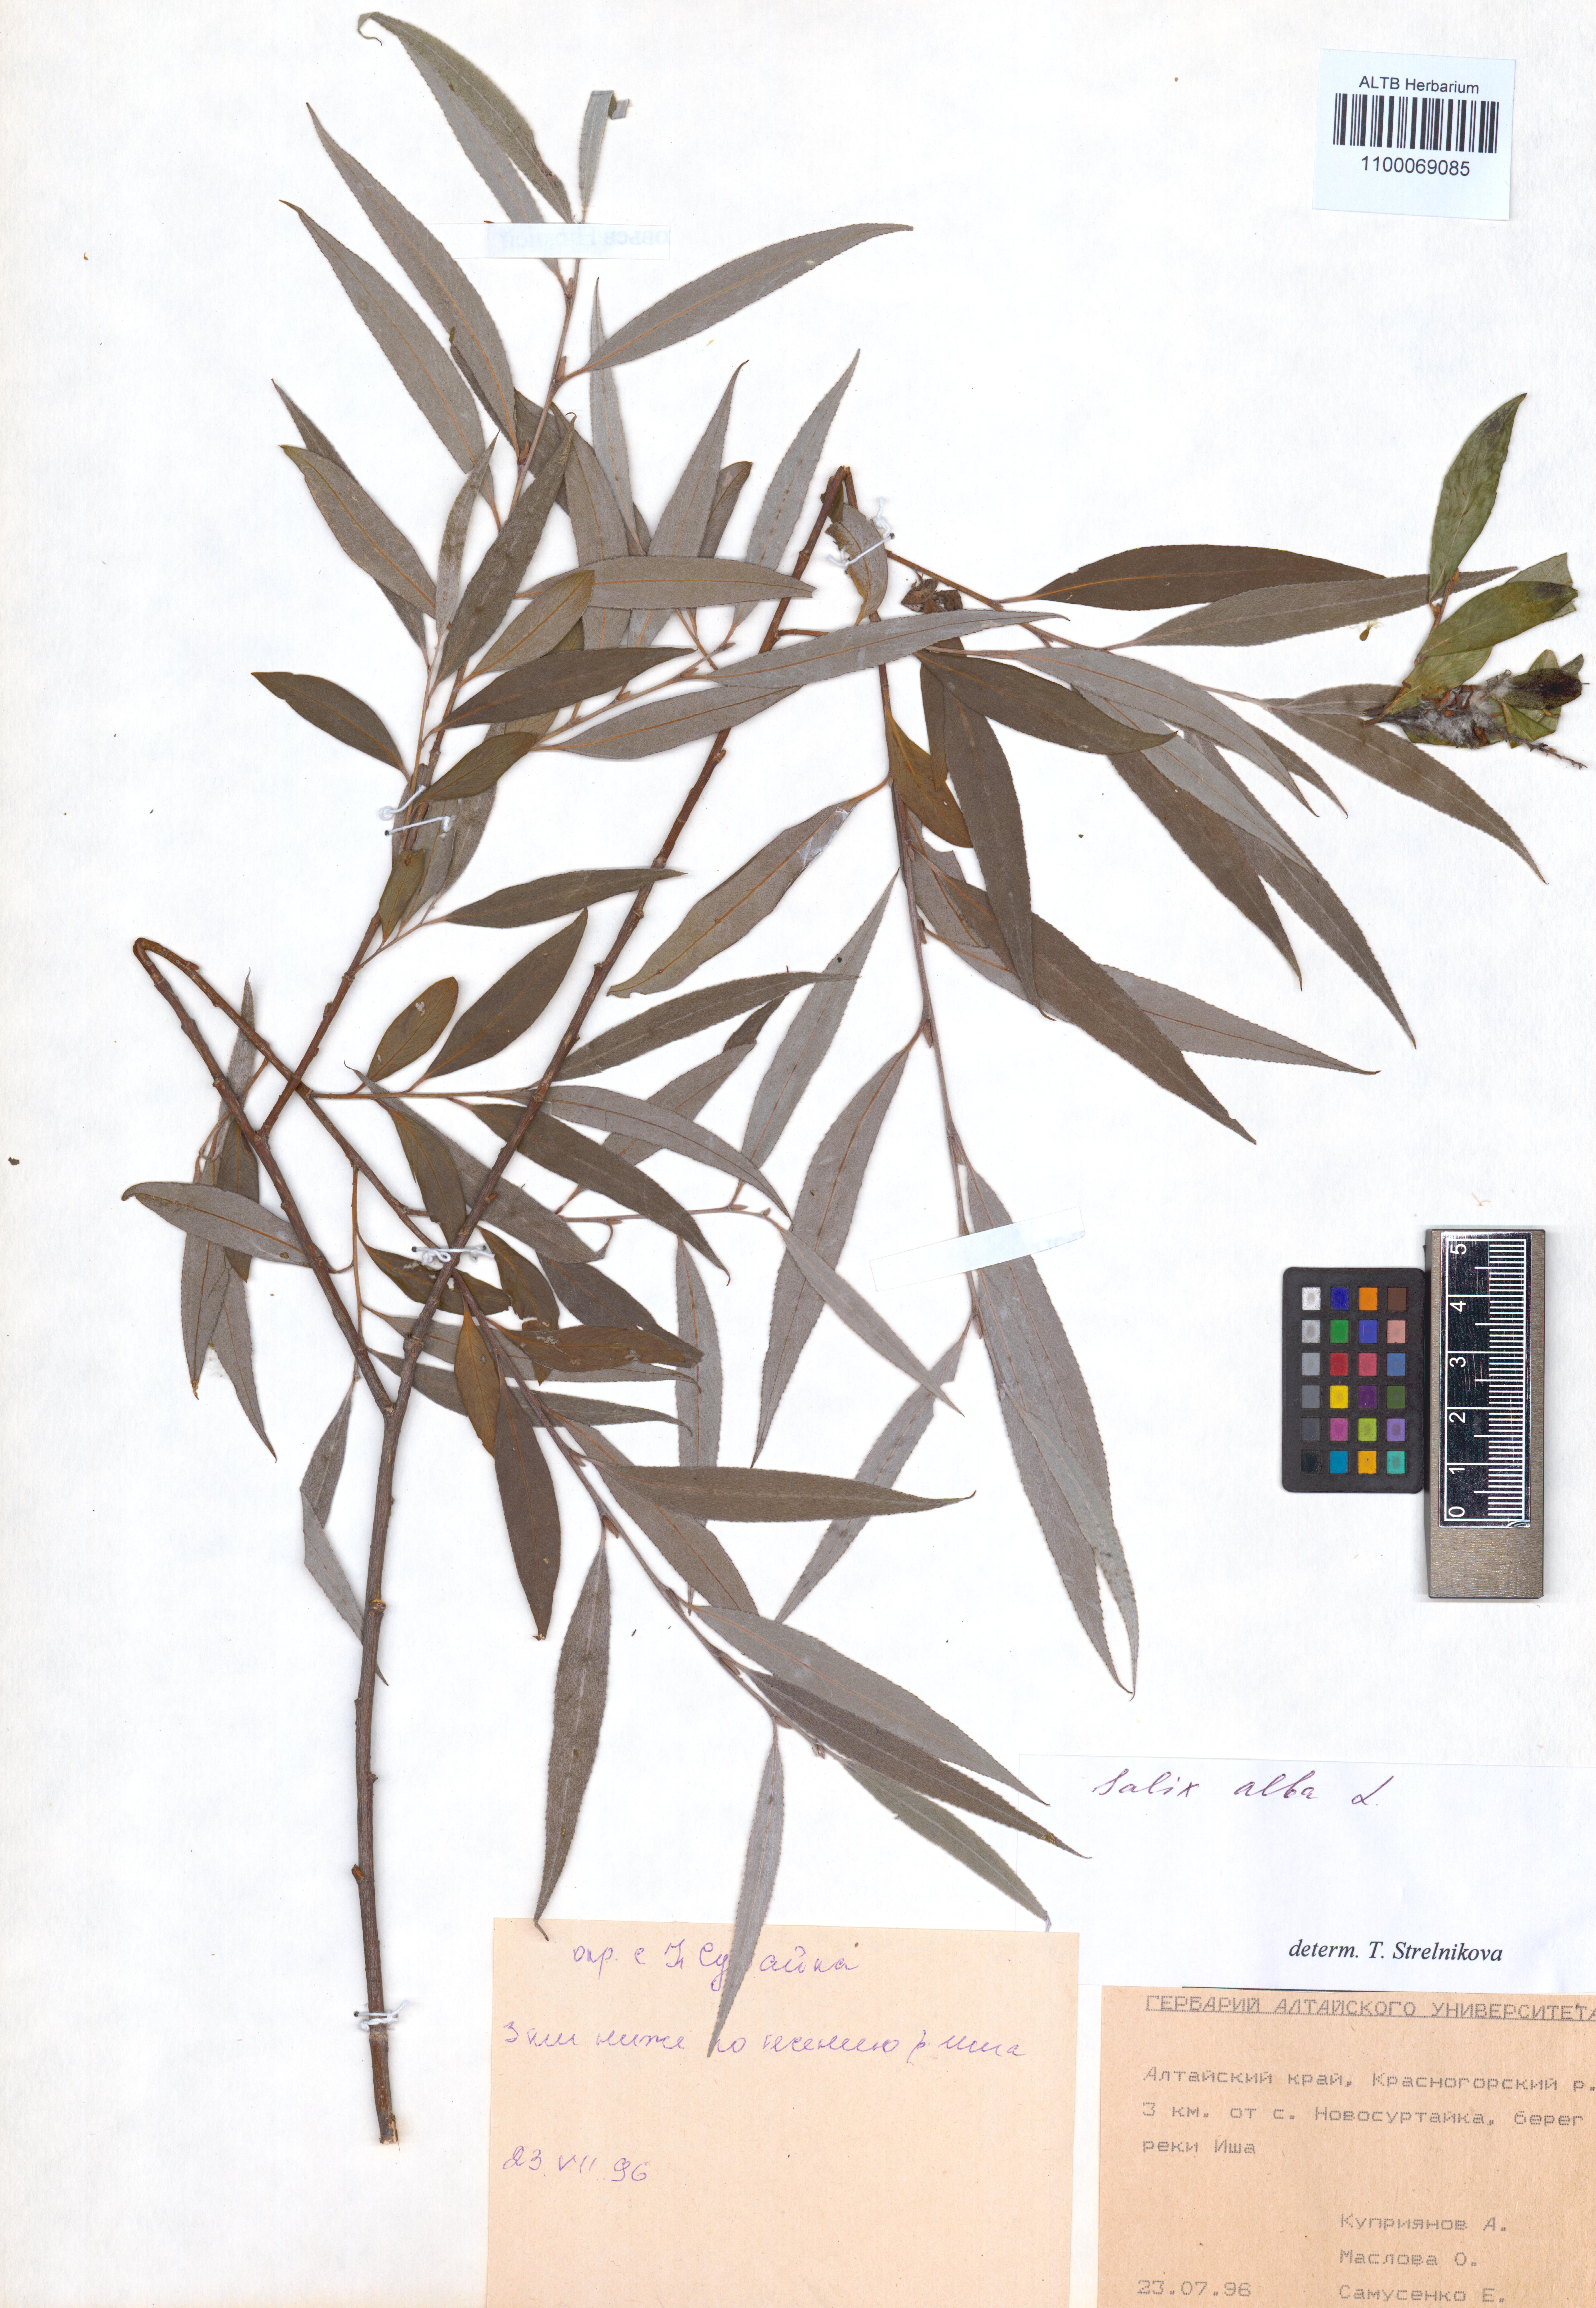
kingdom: Plantae
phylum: Tracheophyta
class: Magnoliopsida
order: Malpighiales
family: Salicaceae
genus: Salix
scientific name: Salix alba
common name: White willow
